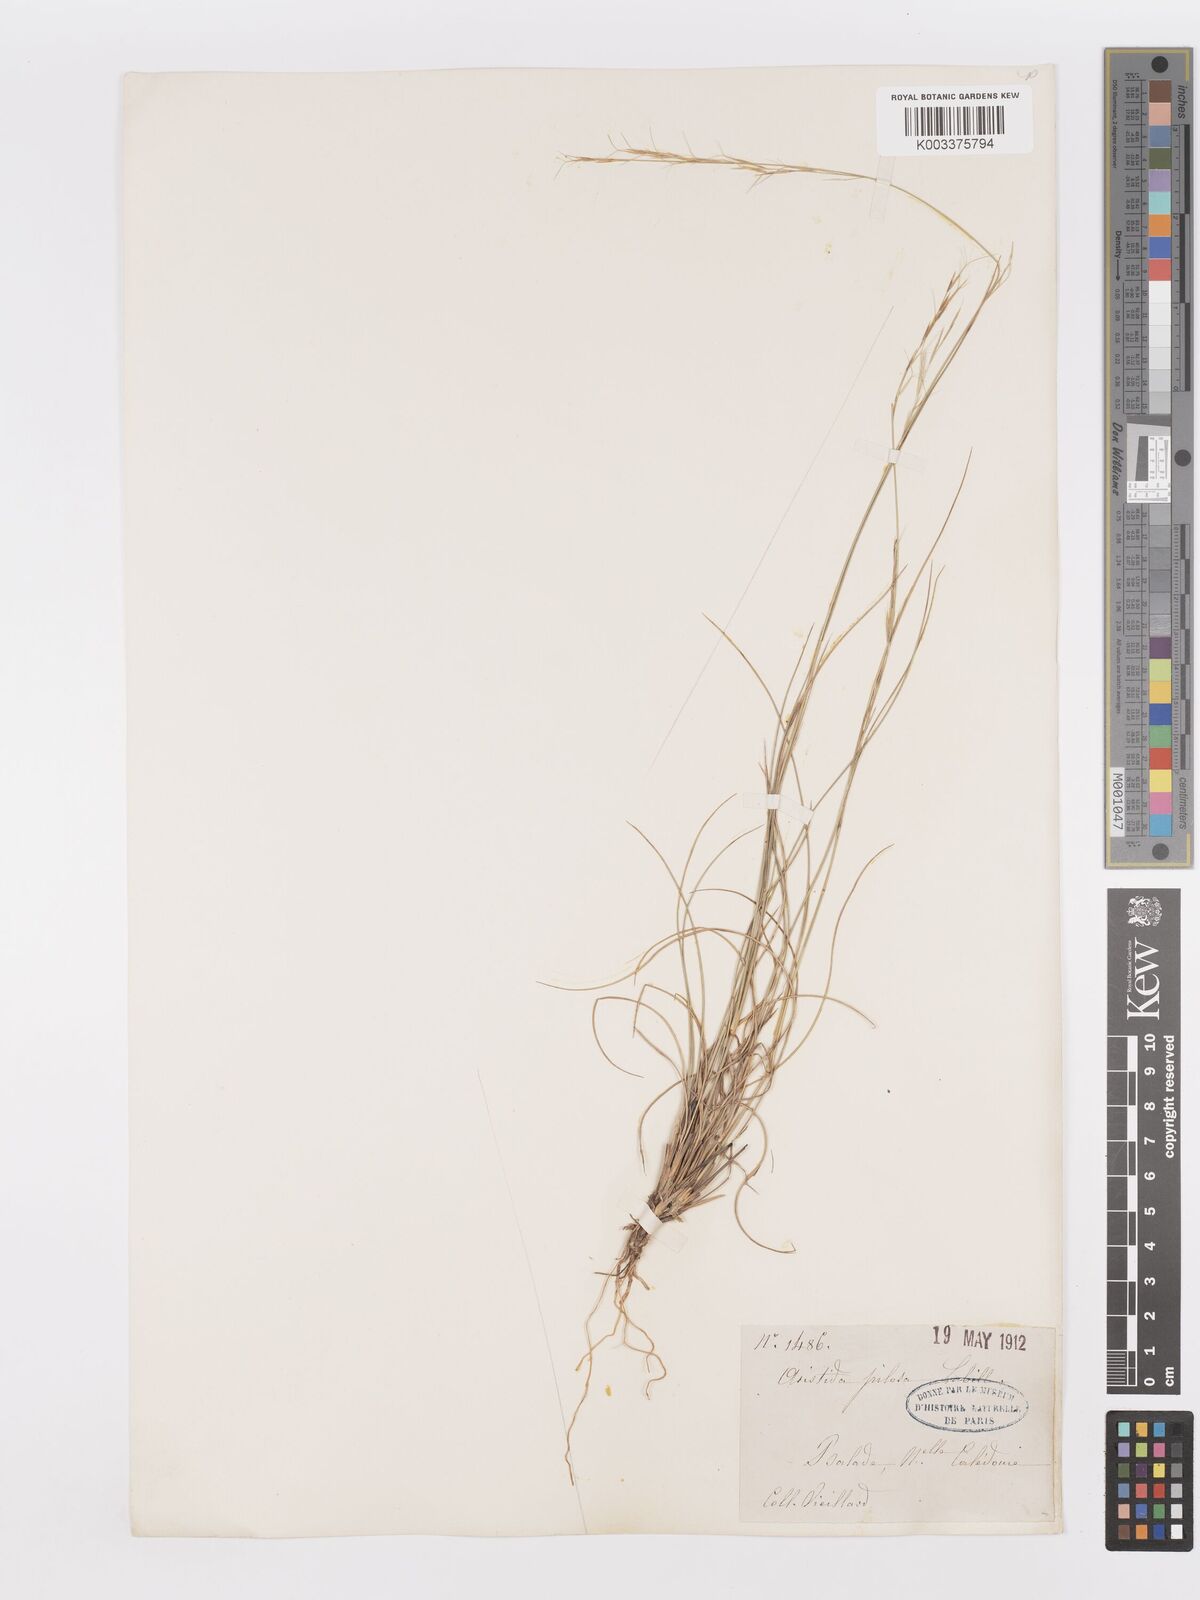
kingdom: Plantae
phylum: Tracheophyta
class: Liliopsida
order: Poales
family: Poaceae
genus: Aristida
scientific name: Aristida pilosa
